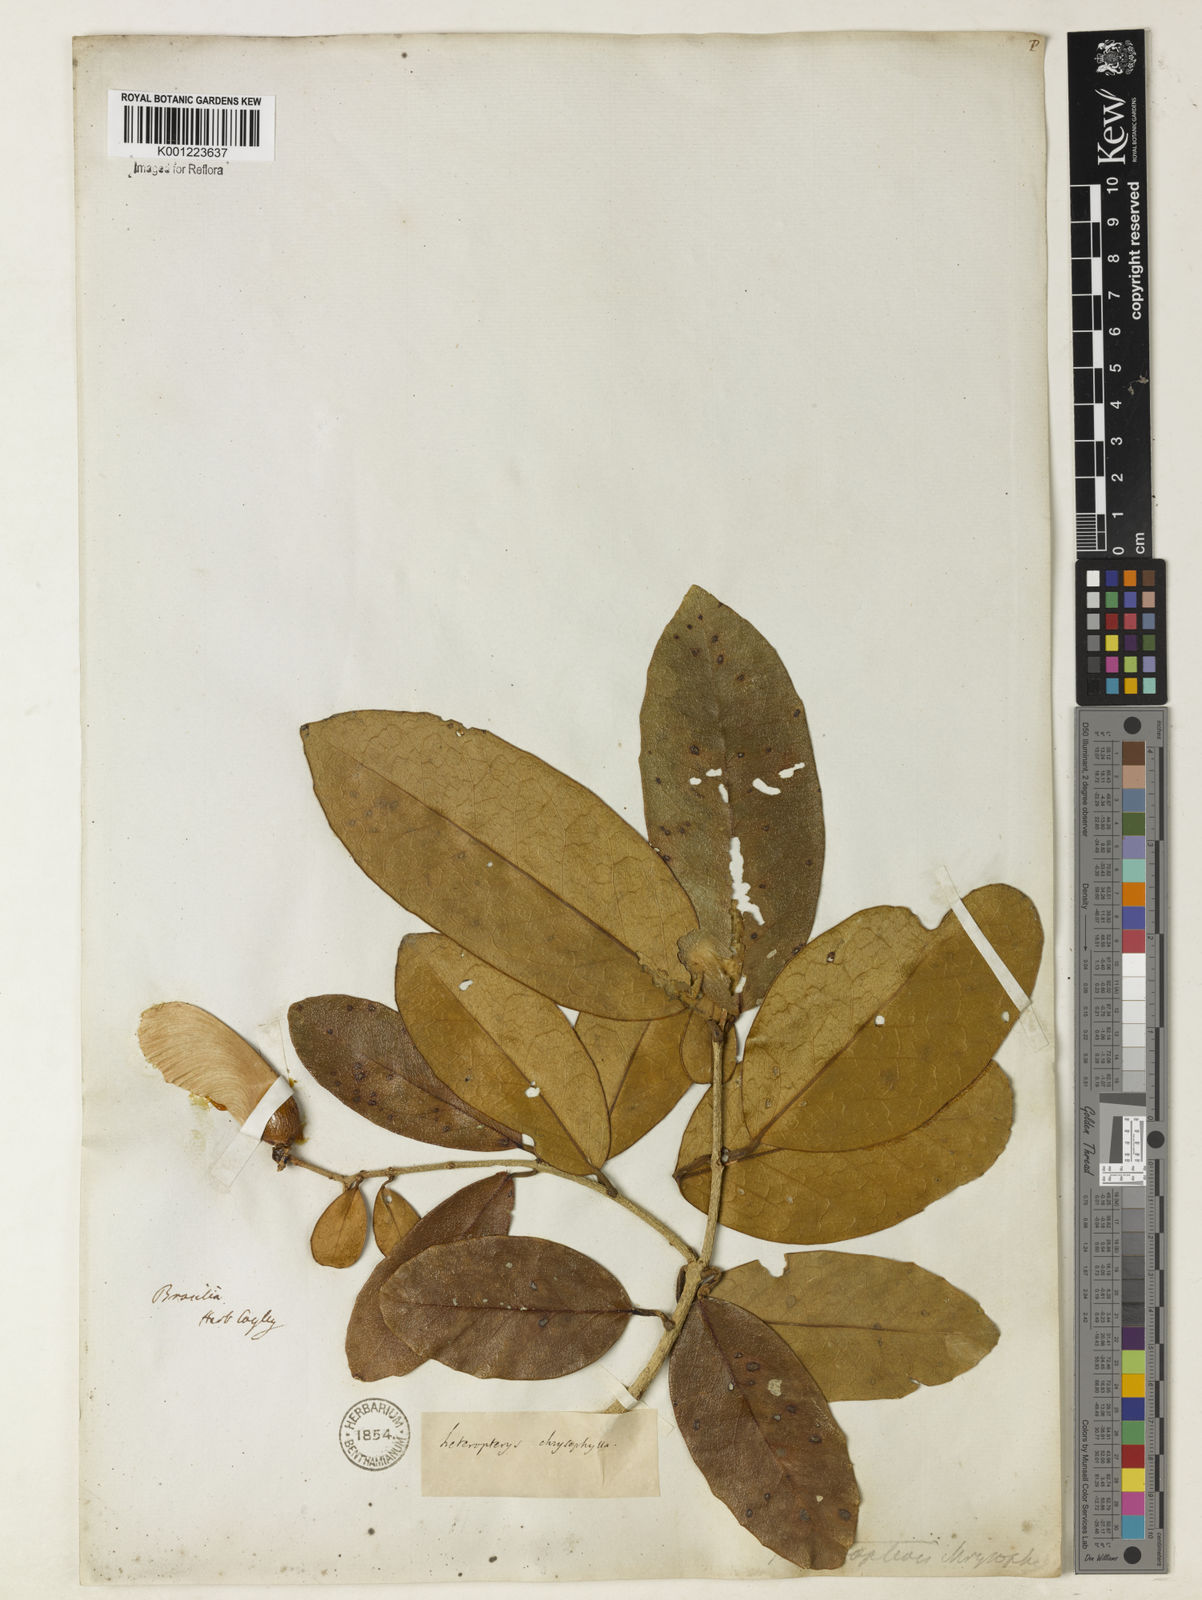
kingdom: Plantae
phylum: Tracheophyta
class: Magnoliopsida
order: Malpighiales
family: Malpighiaceae
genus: Heteropterys
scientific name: Heteropterys chrysophylla
